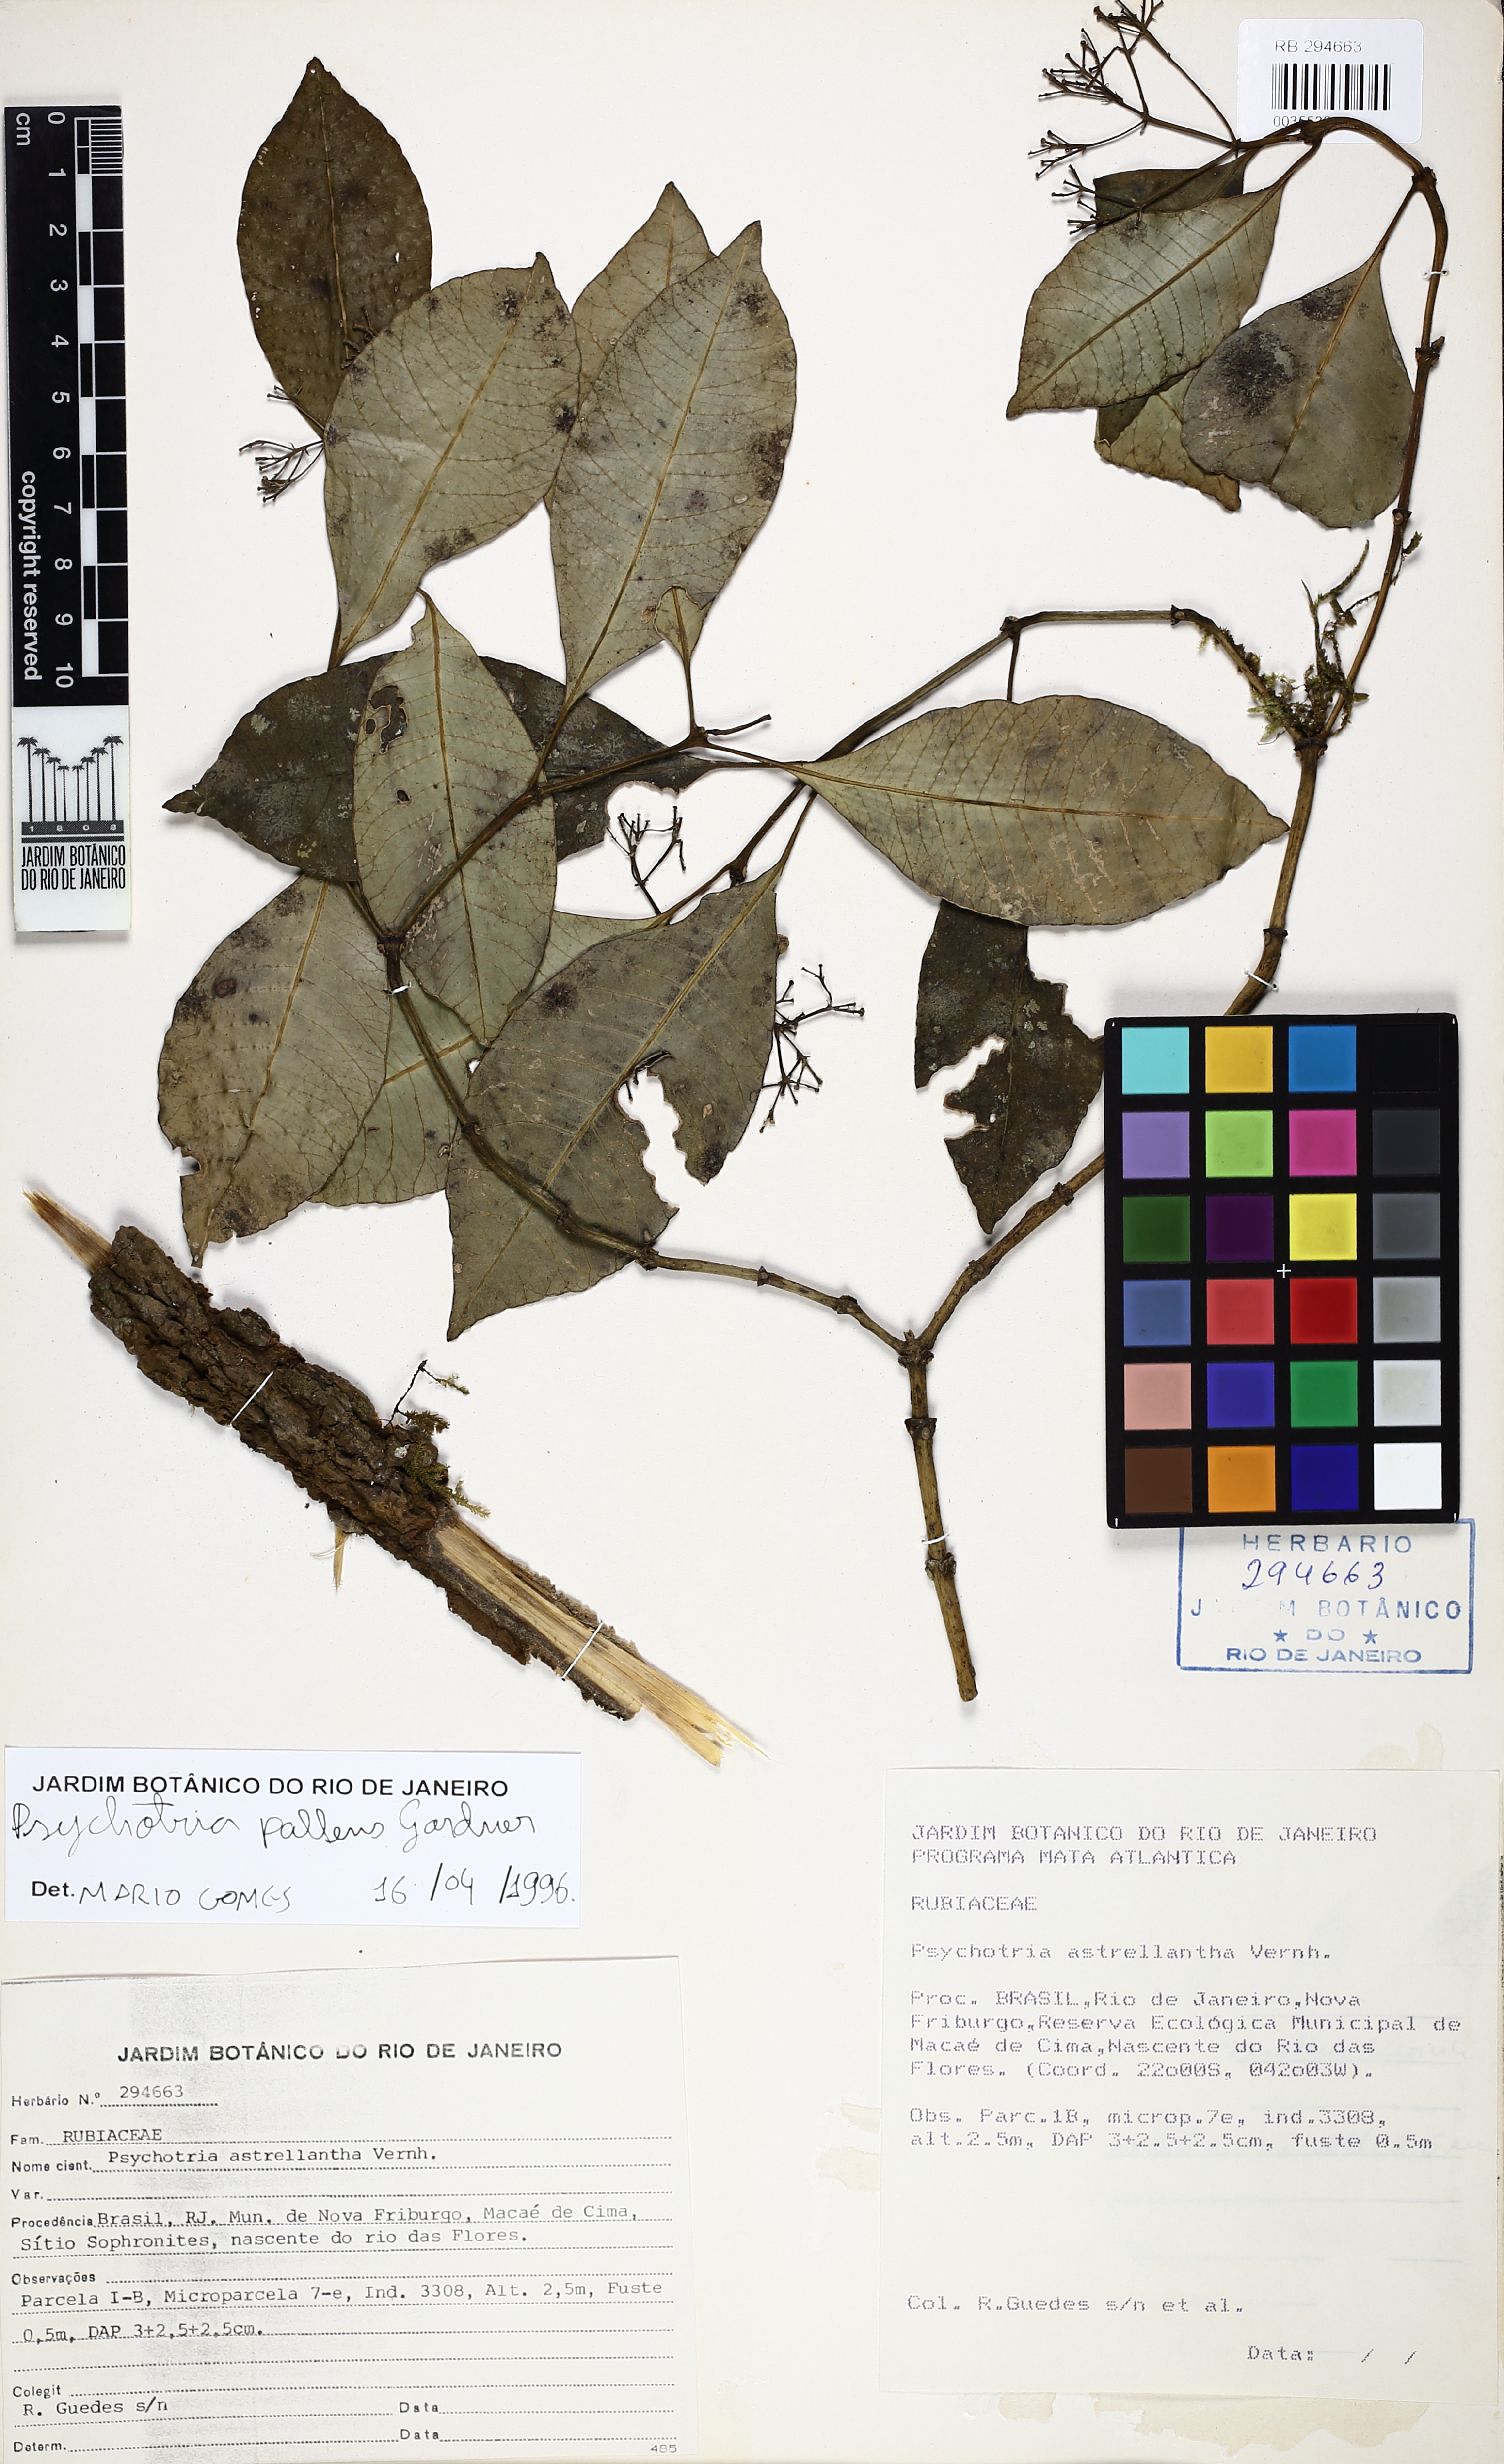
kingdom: Plantae
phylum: Tracheophyta
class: Magnoliopsida
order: Gentianales
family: Rubiaceae
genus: Psychotria
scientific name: Psychotria pallens
